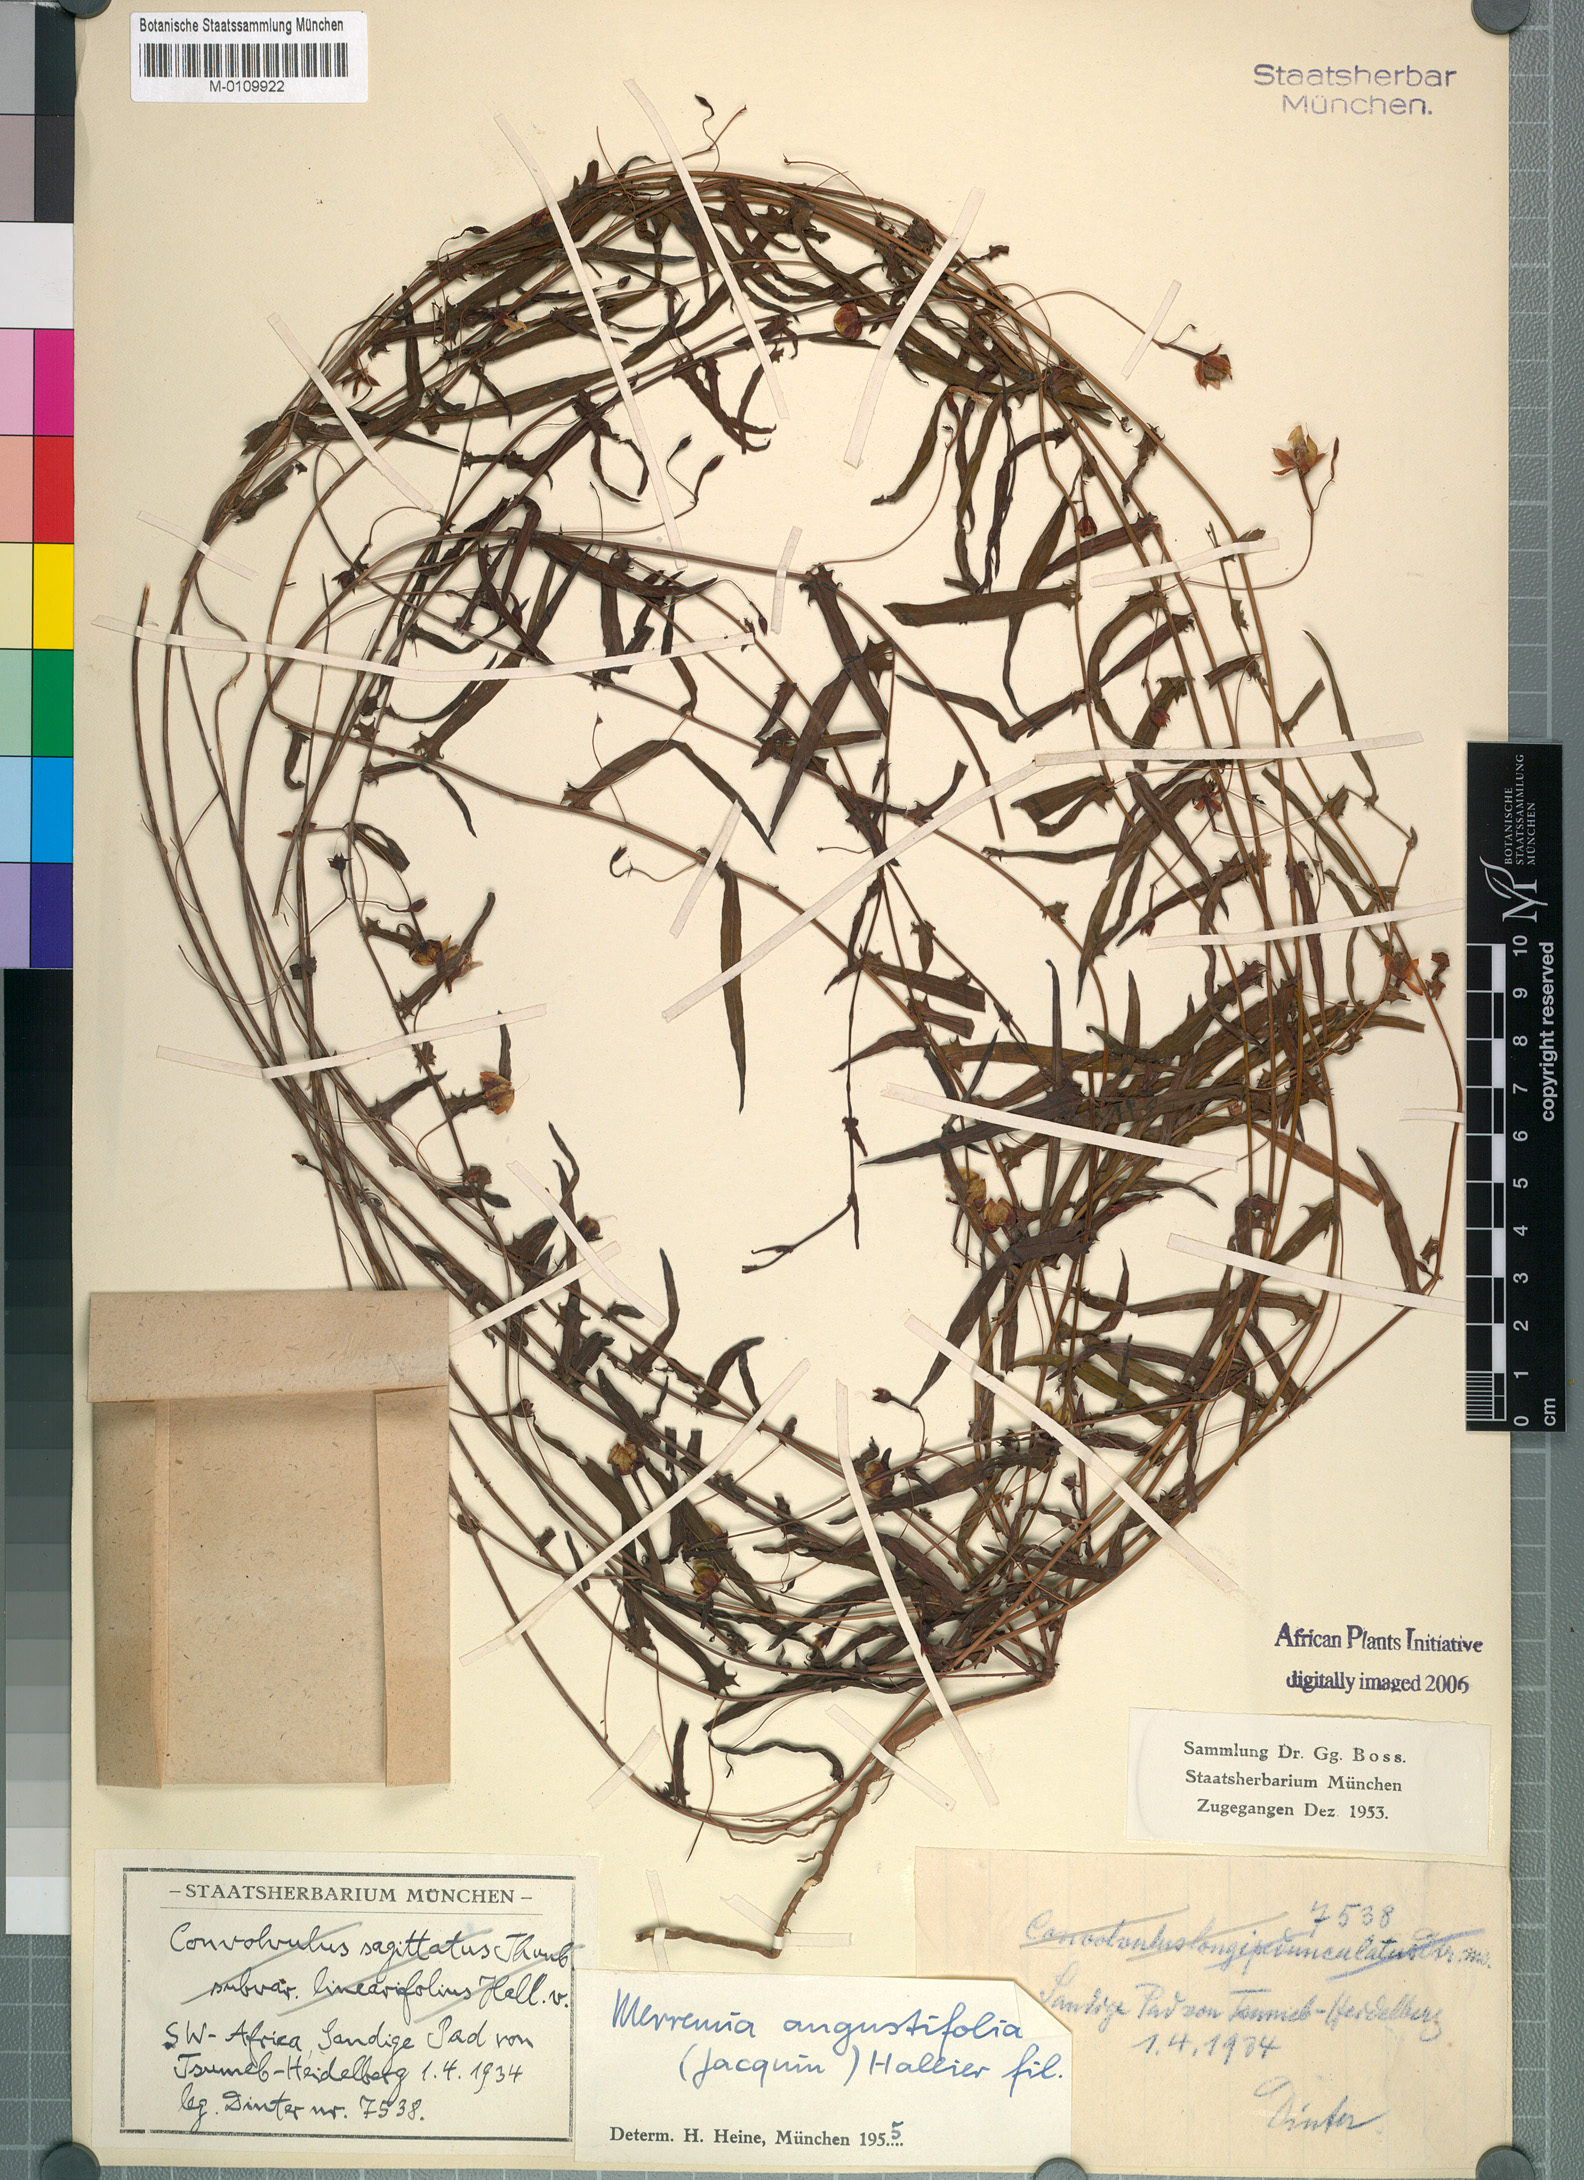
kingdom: Plantae
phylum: Tracheophyta
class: Magnoliopsida
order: Solanales
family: Convolvulaceae
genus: Xenostegia
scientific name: Xenostegia tridentata
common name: African morningvine
